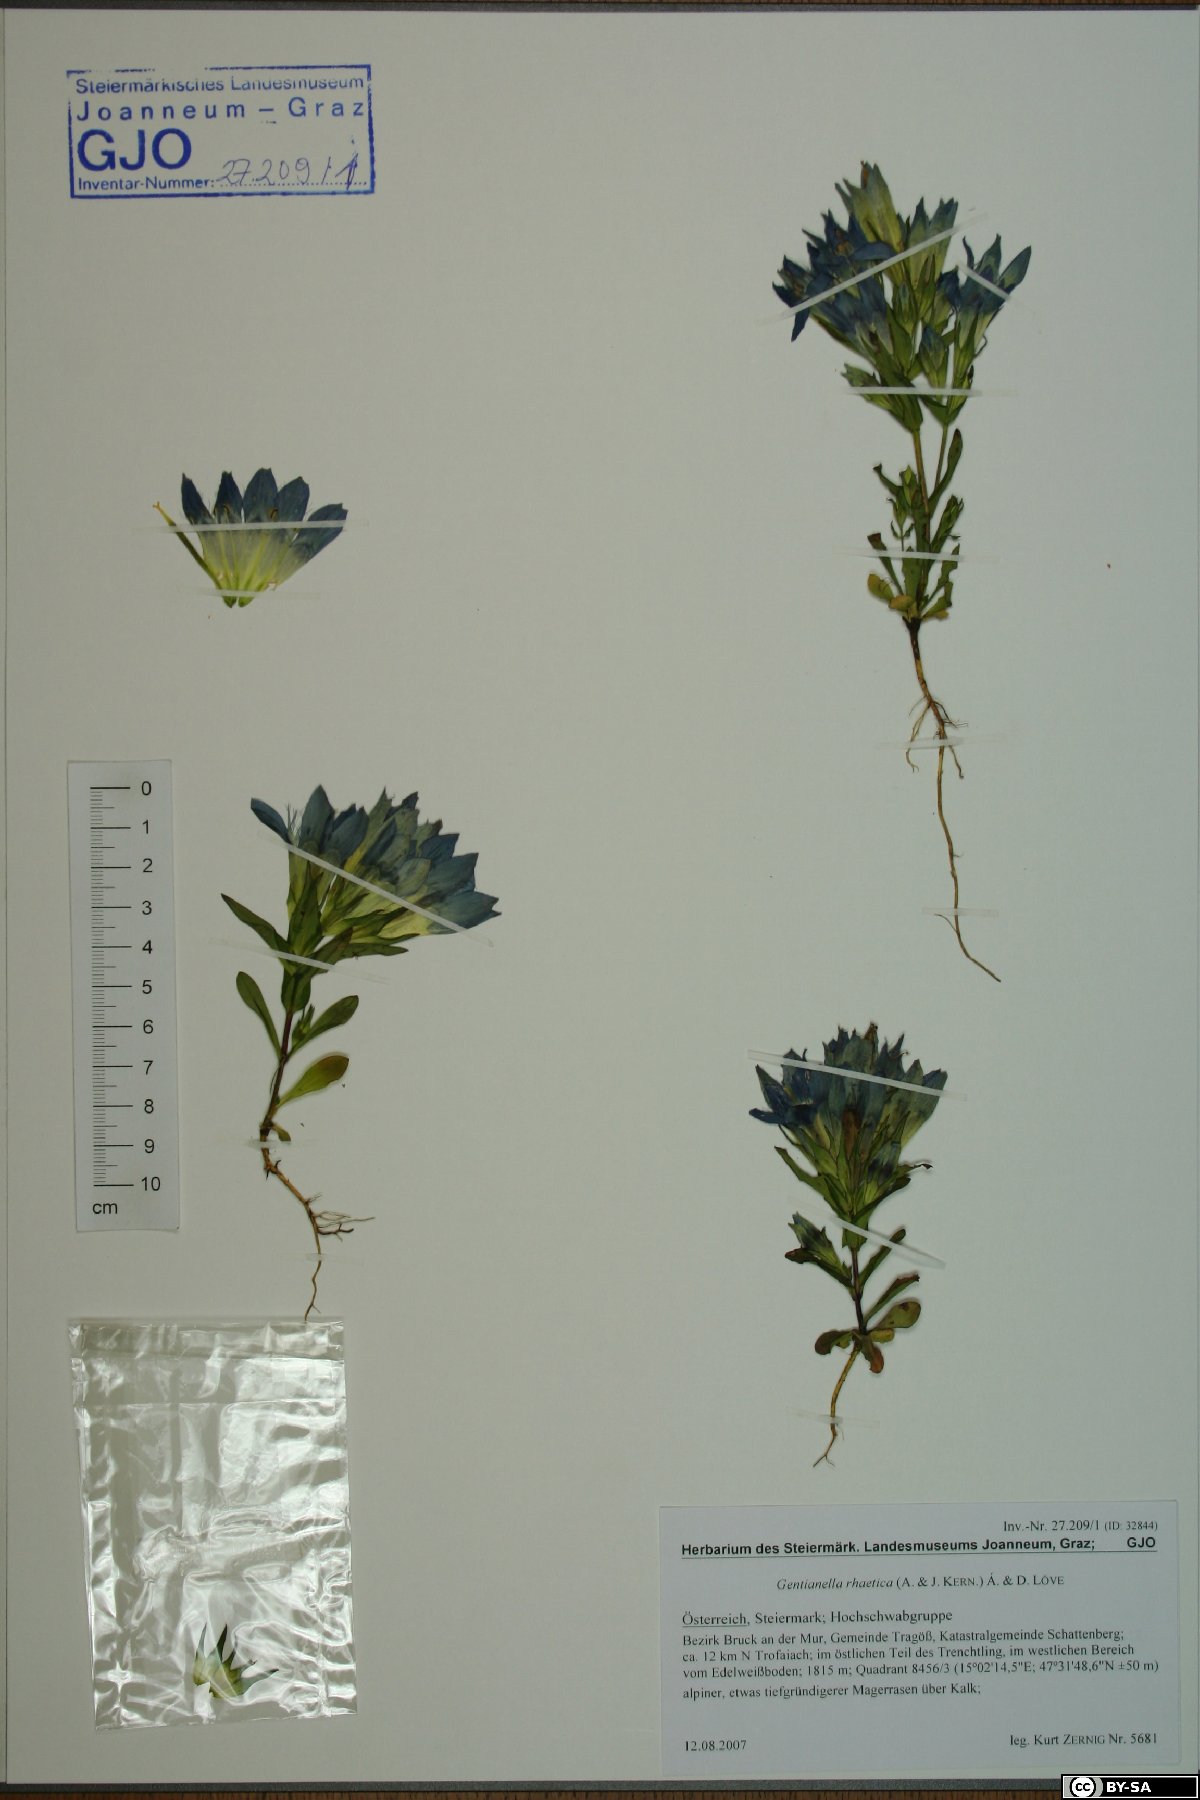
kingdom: Plantae
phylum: Tracheophyta
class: Magnoliopsida
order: Gentianales
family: Gentianaceae
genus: Gentianella
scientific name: Gentianella rhaetica
